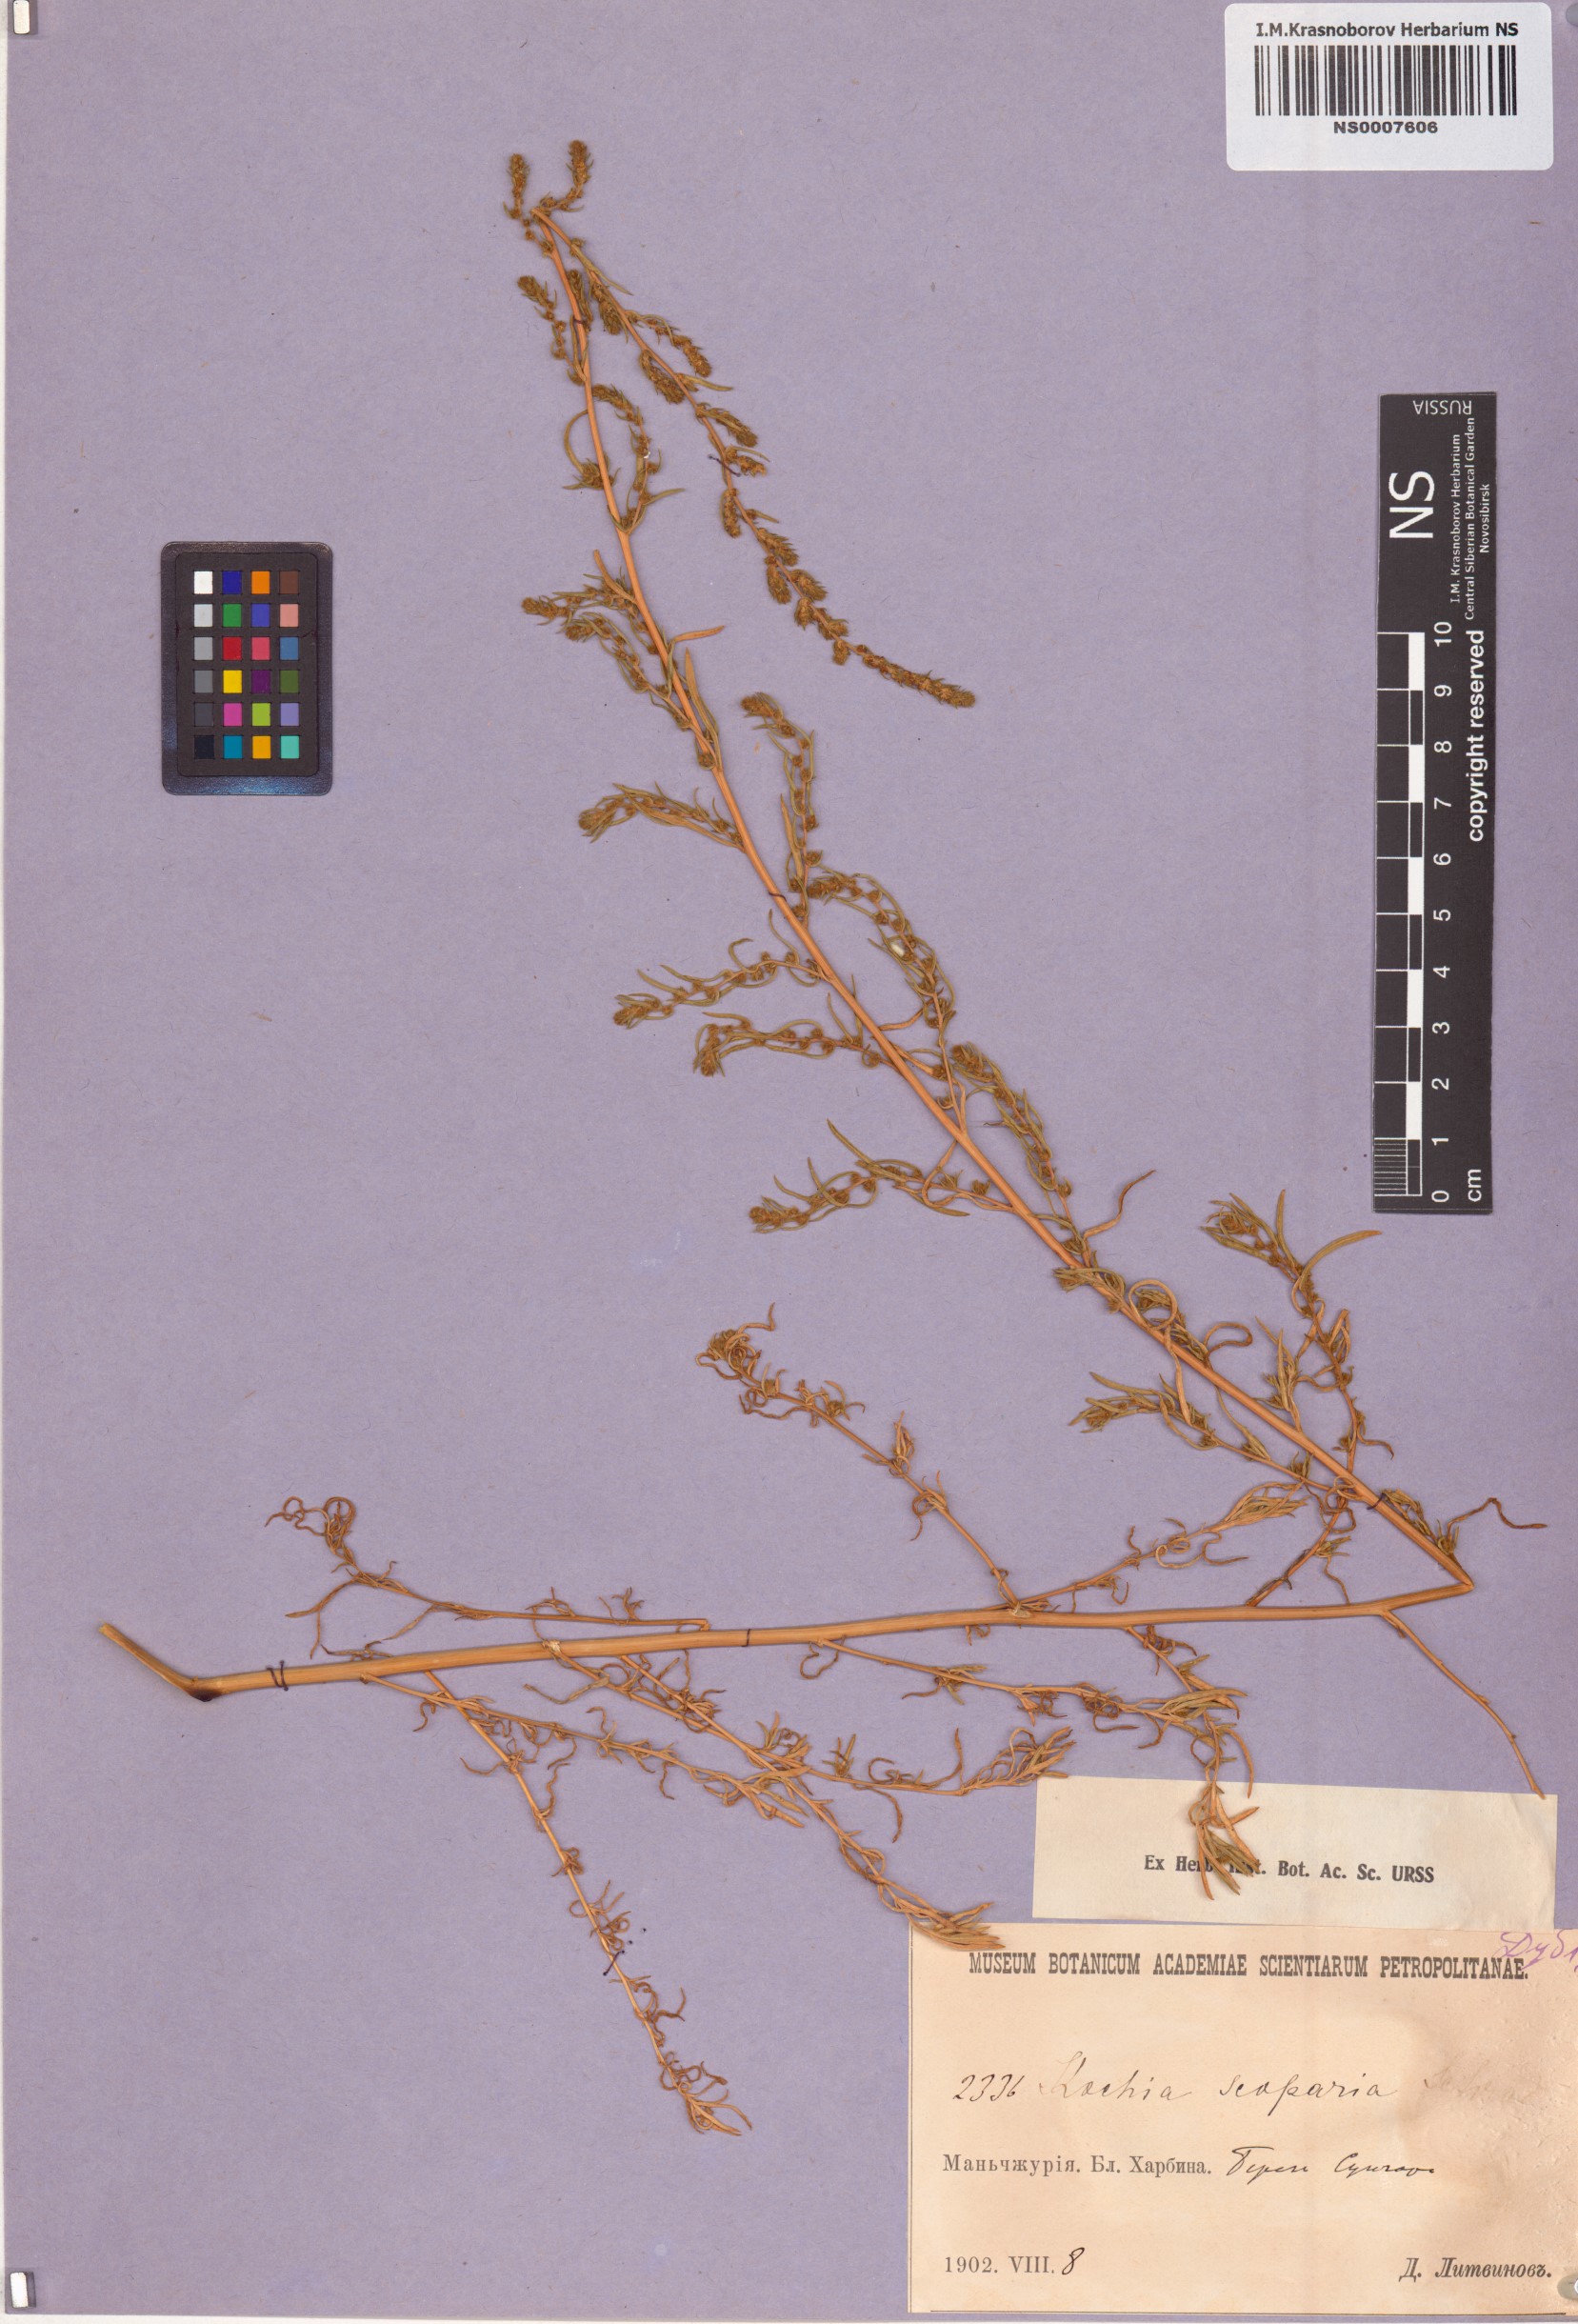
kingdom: Plantae
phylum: Tracheophyta
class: Magnoliopsida
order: Caryophyllales
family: Amaranthaceae
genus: Bassia
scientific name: Bassia scoparia
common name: Belvedere
